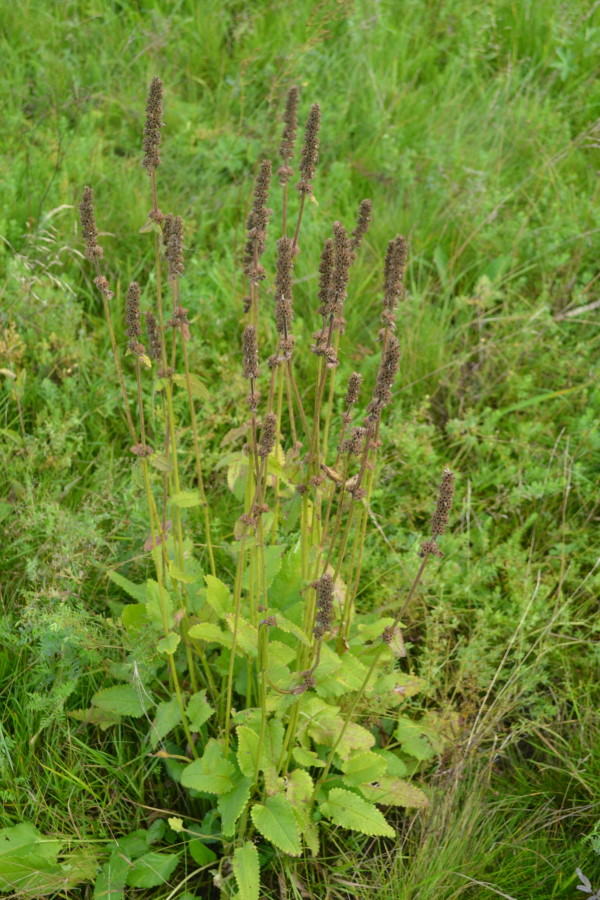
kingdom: Plantae
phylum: Tracheophyta
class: Magnoliopsida
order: Lamiales
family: Lamiaceae
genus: Betonica
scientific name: Betonica officinalis
